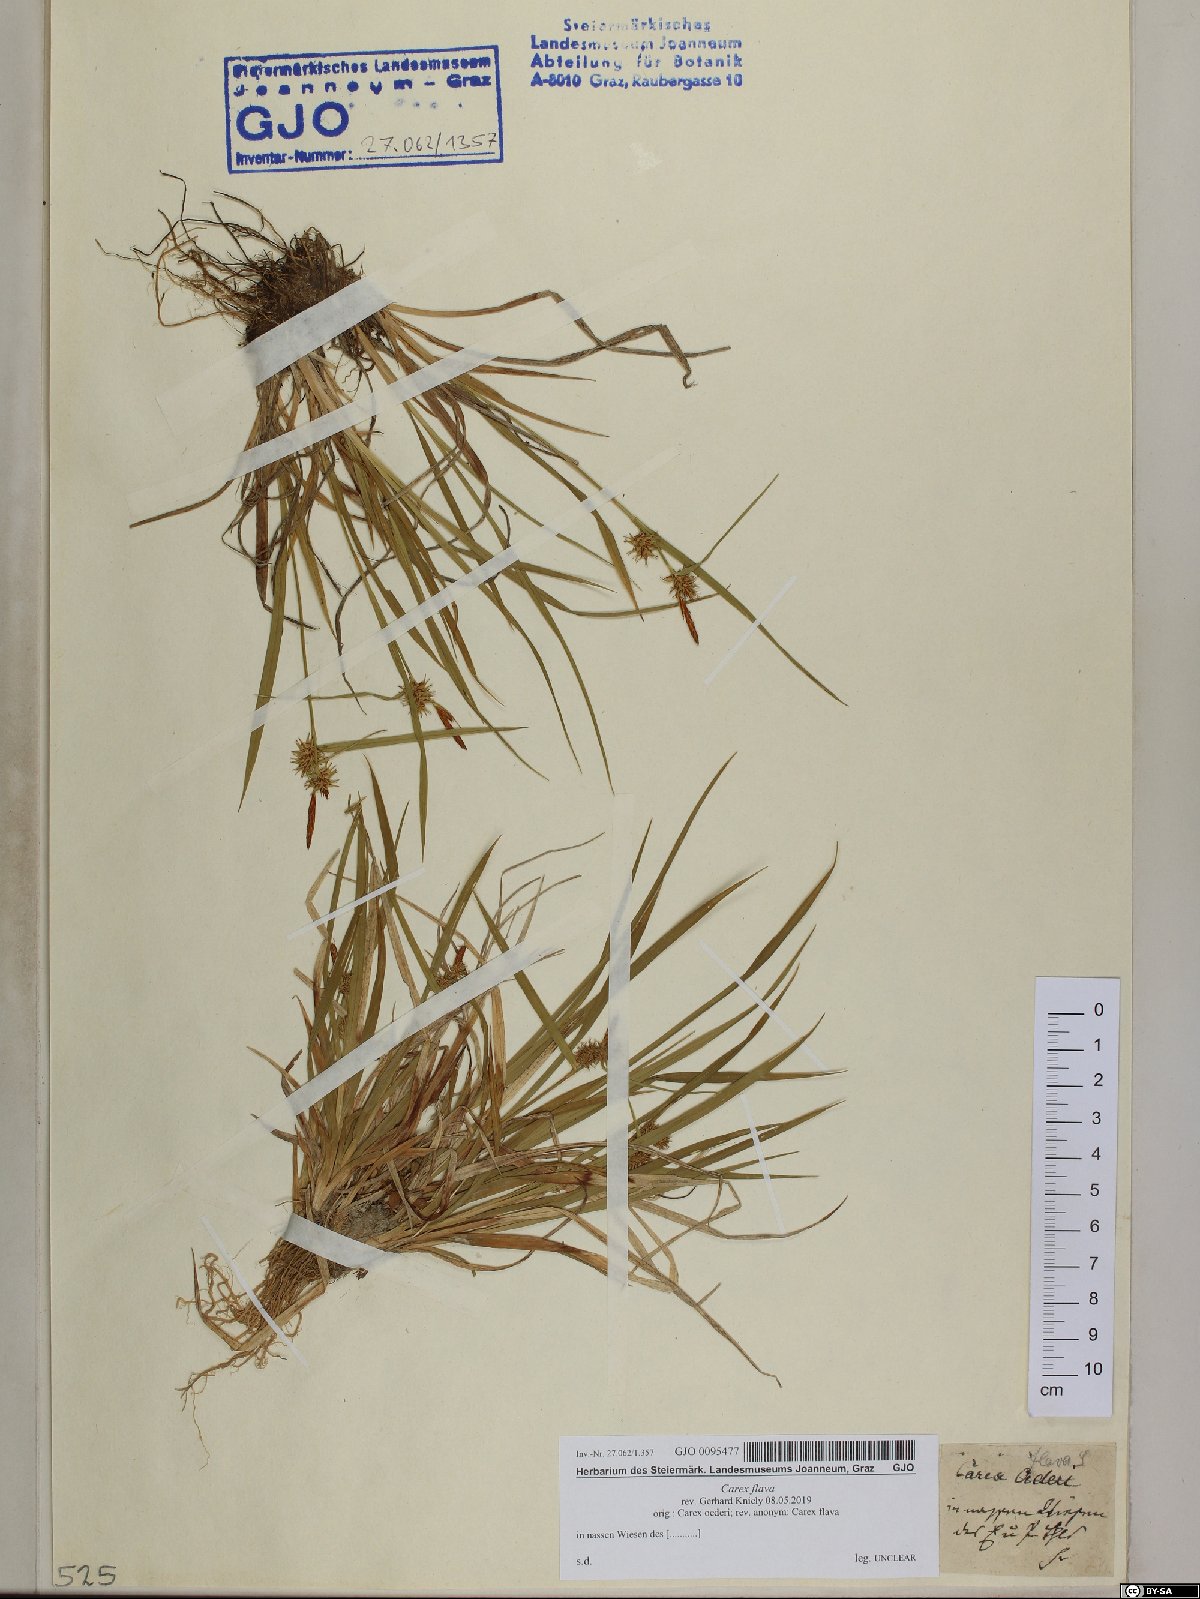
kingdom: Plantae
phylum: Tracheophyta
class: Liliopsida
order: Poales
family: Cyperaceae
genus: Carex
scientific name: Carex flava
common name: Large yellow-sedge
